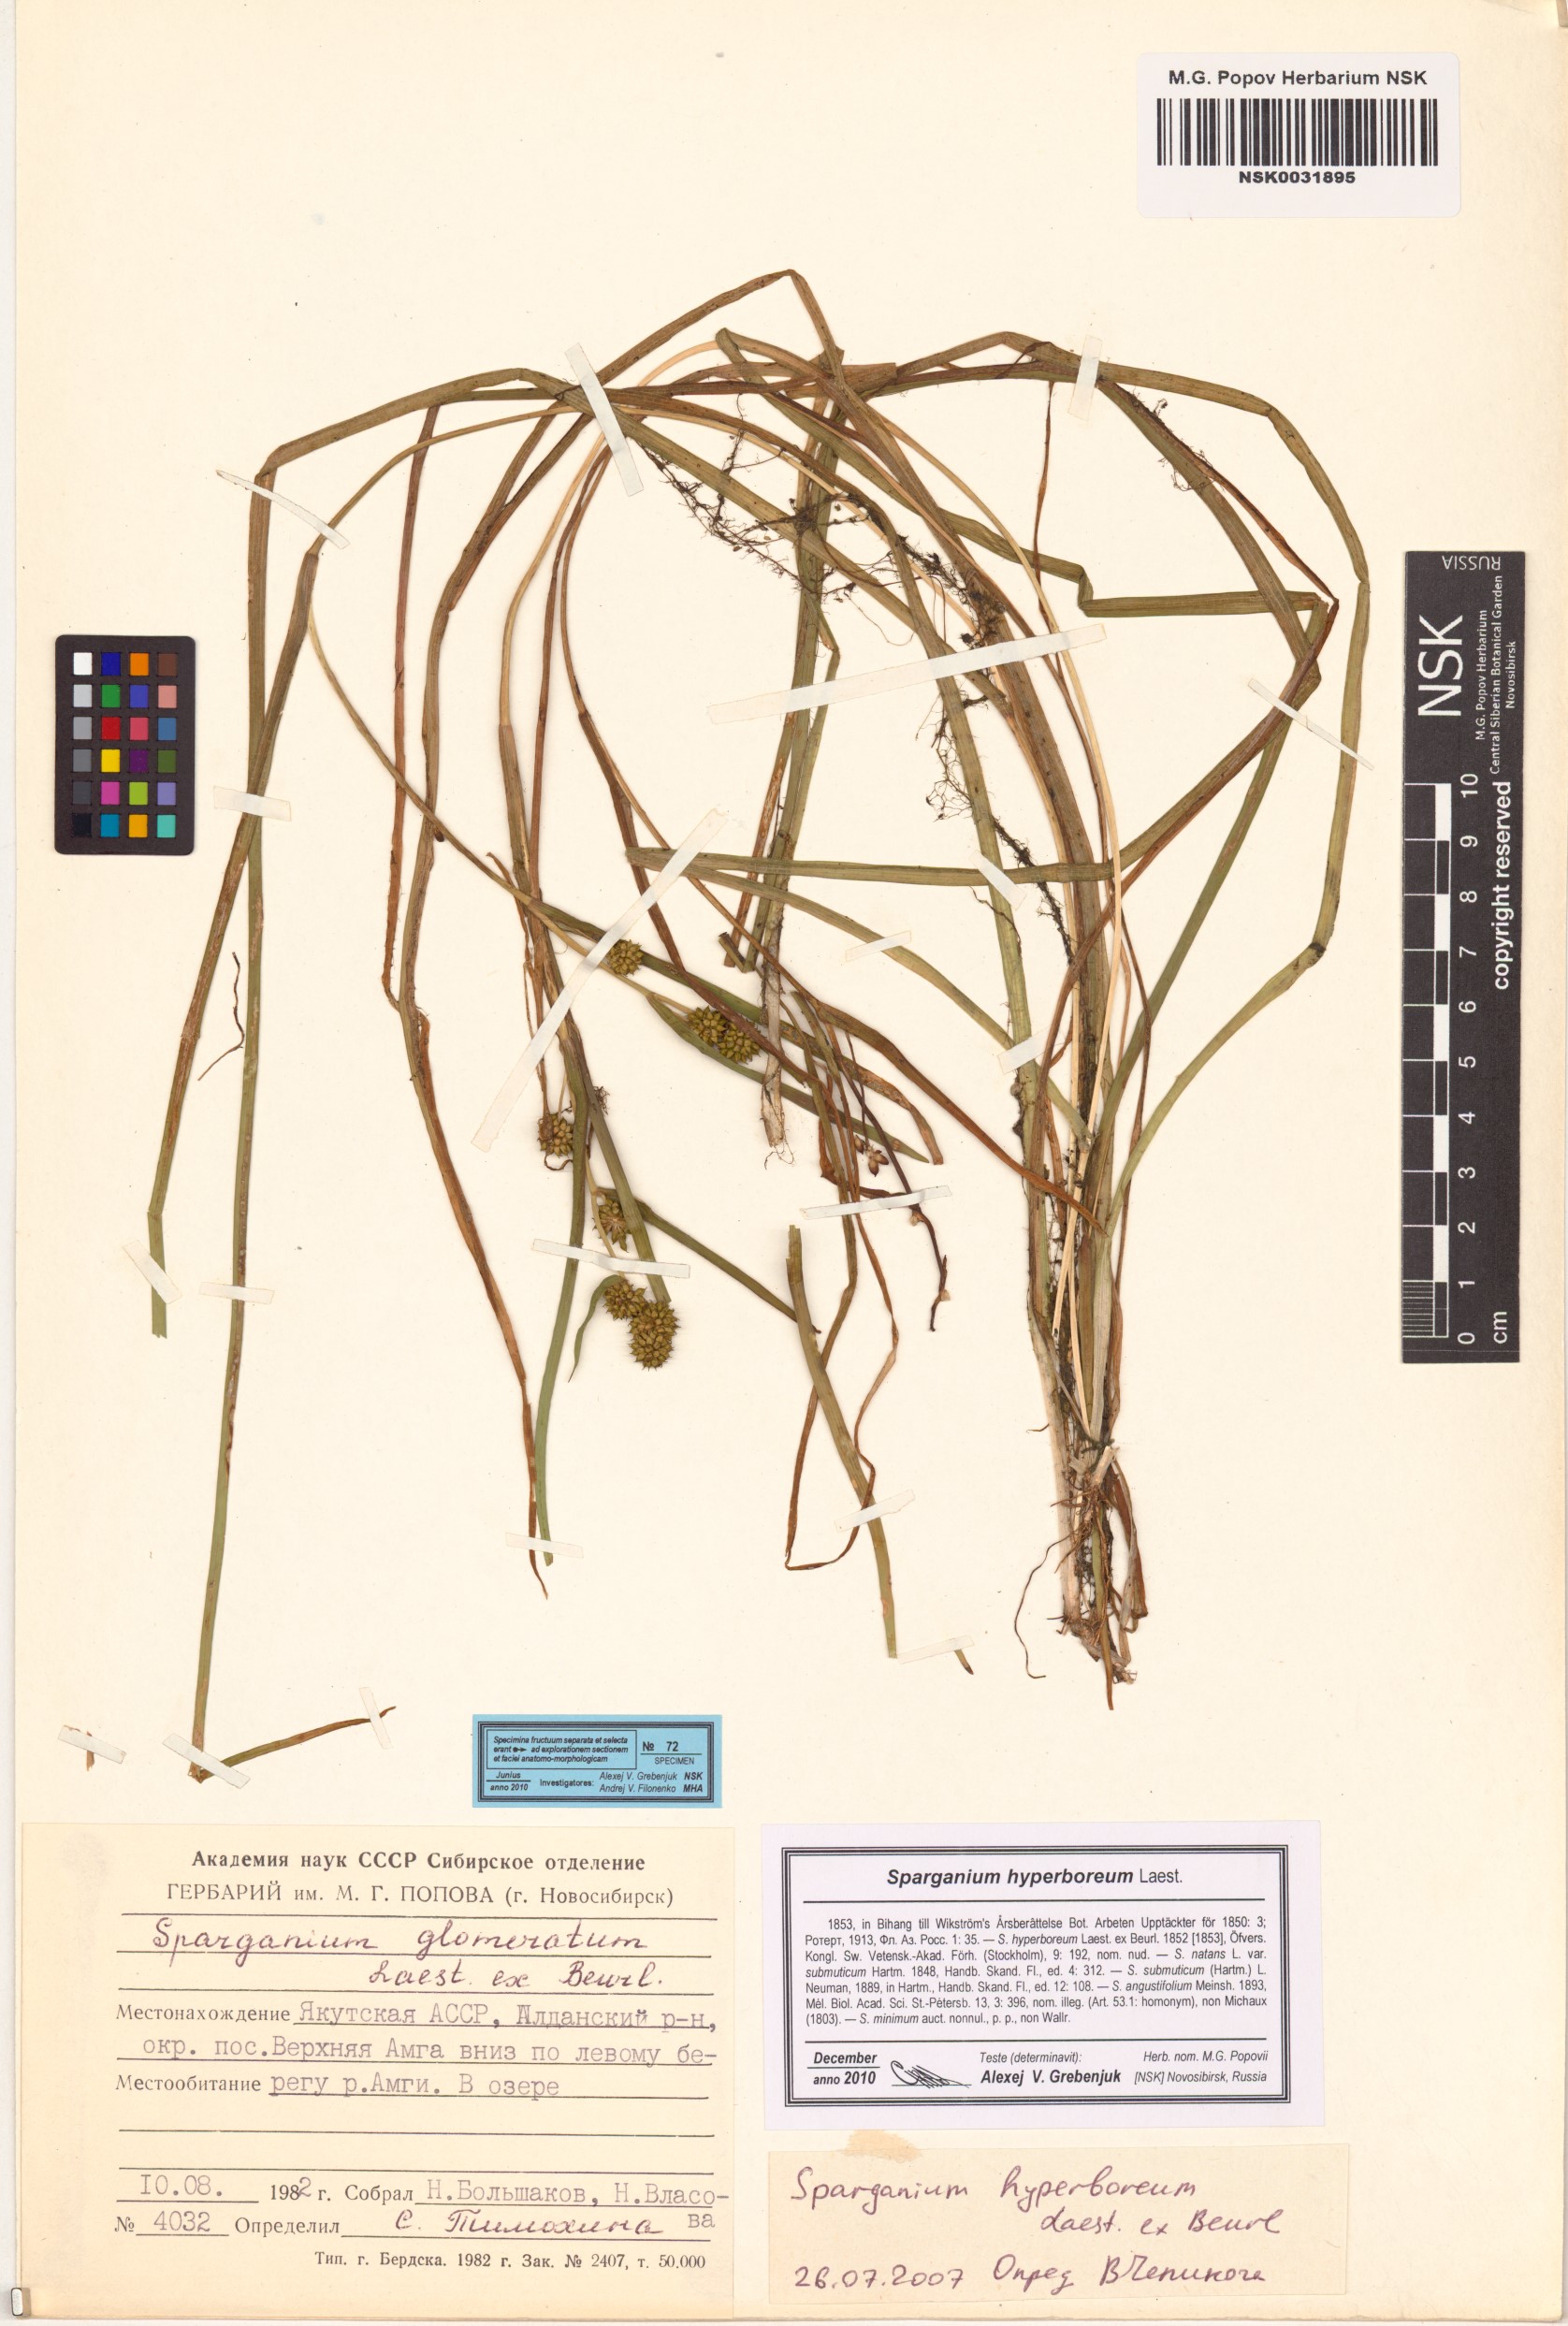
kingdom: Plantae
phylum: Tracheophyta
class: Liliopsida
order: Poales
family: Typhaceae
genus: Sparganium
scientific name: Sparganium hyperboreum
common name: Arctic burreed
